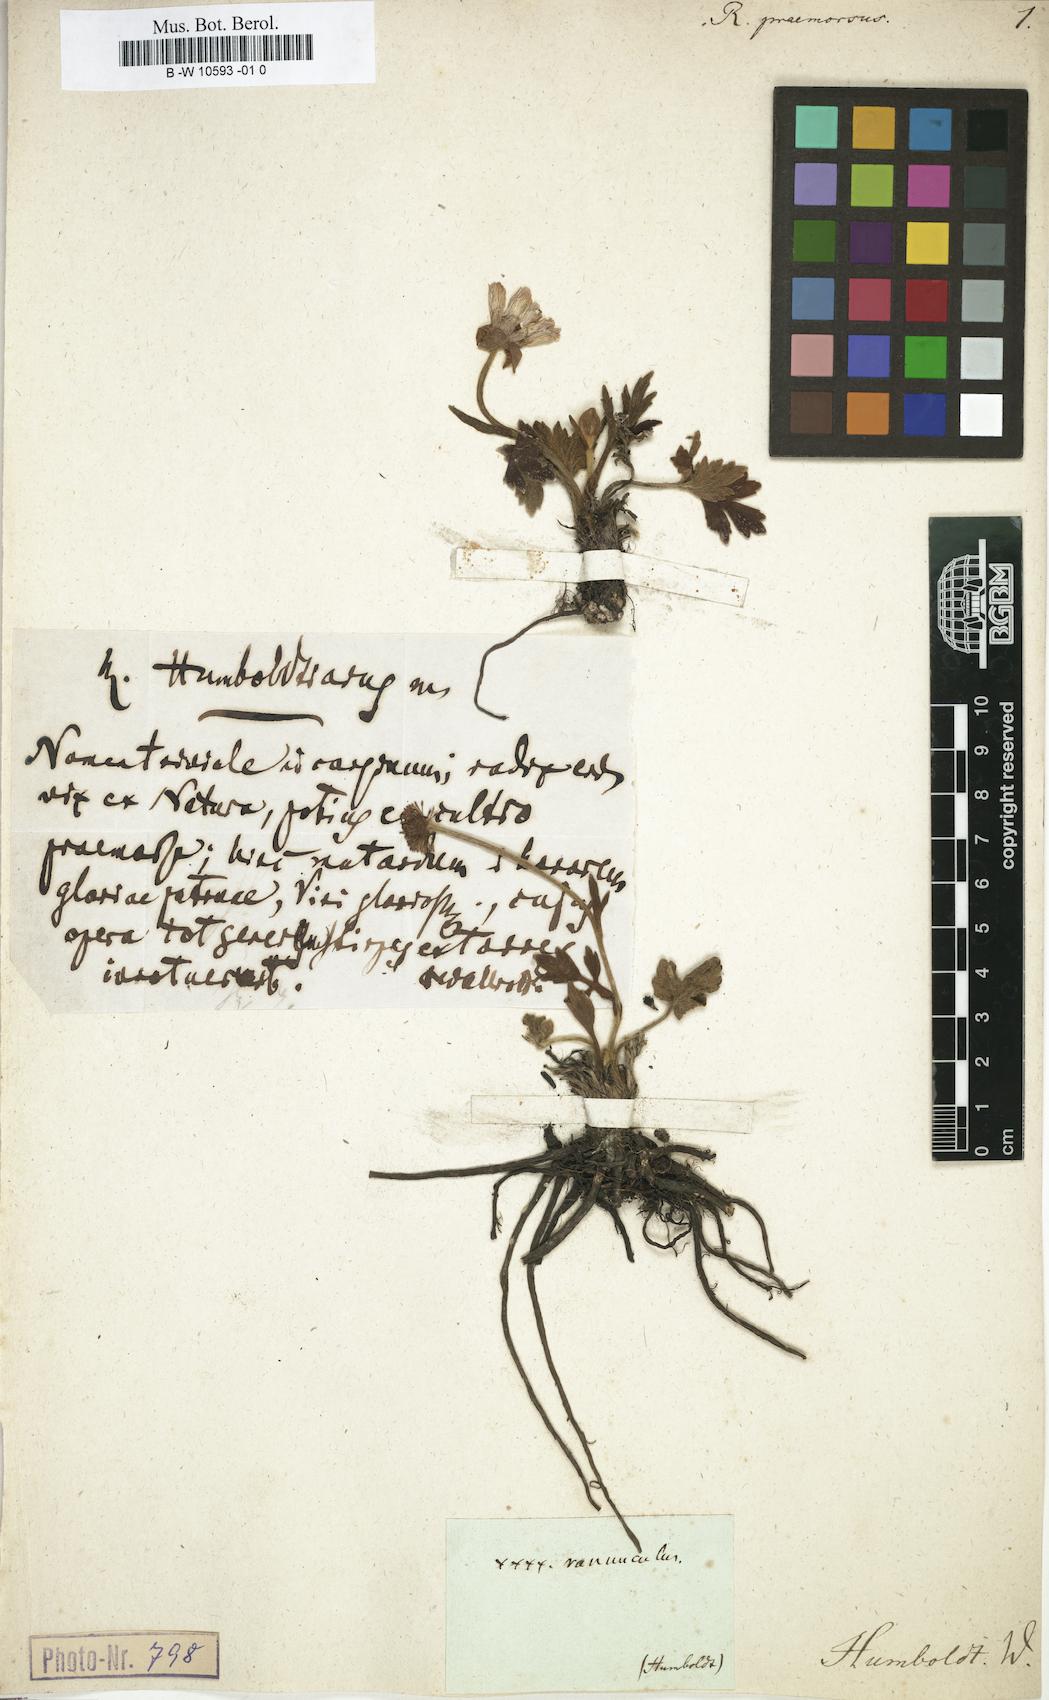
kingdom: Plantae
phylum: Tracheophyta
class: Magnoliopsida
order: Ranunculales
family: Ranunculaceae
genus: Ranunculus
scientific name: Ranunculus praemorsus
